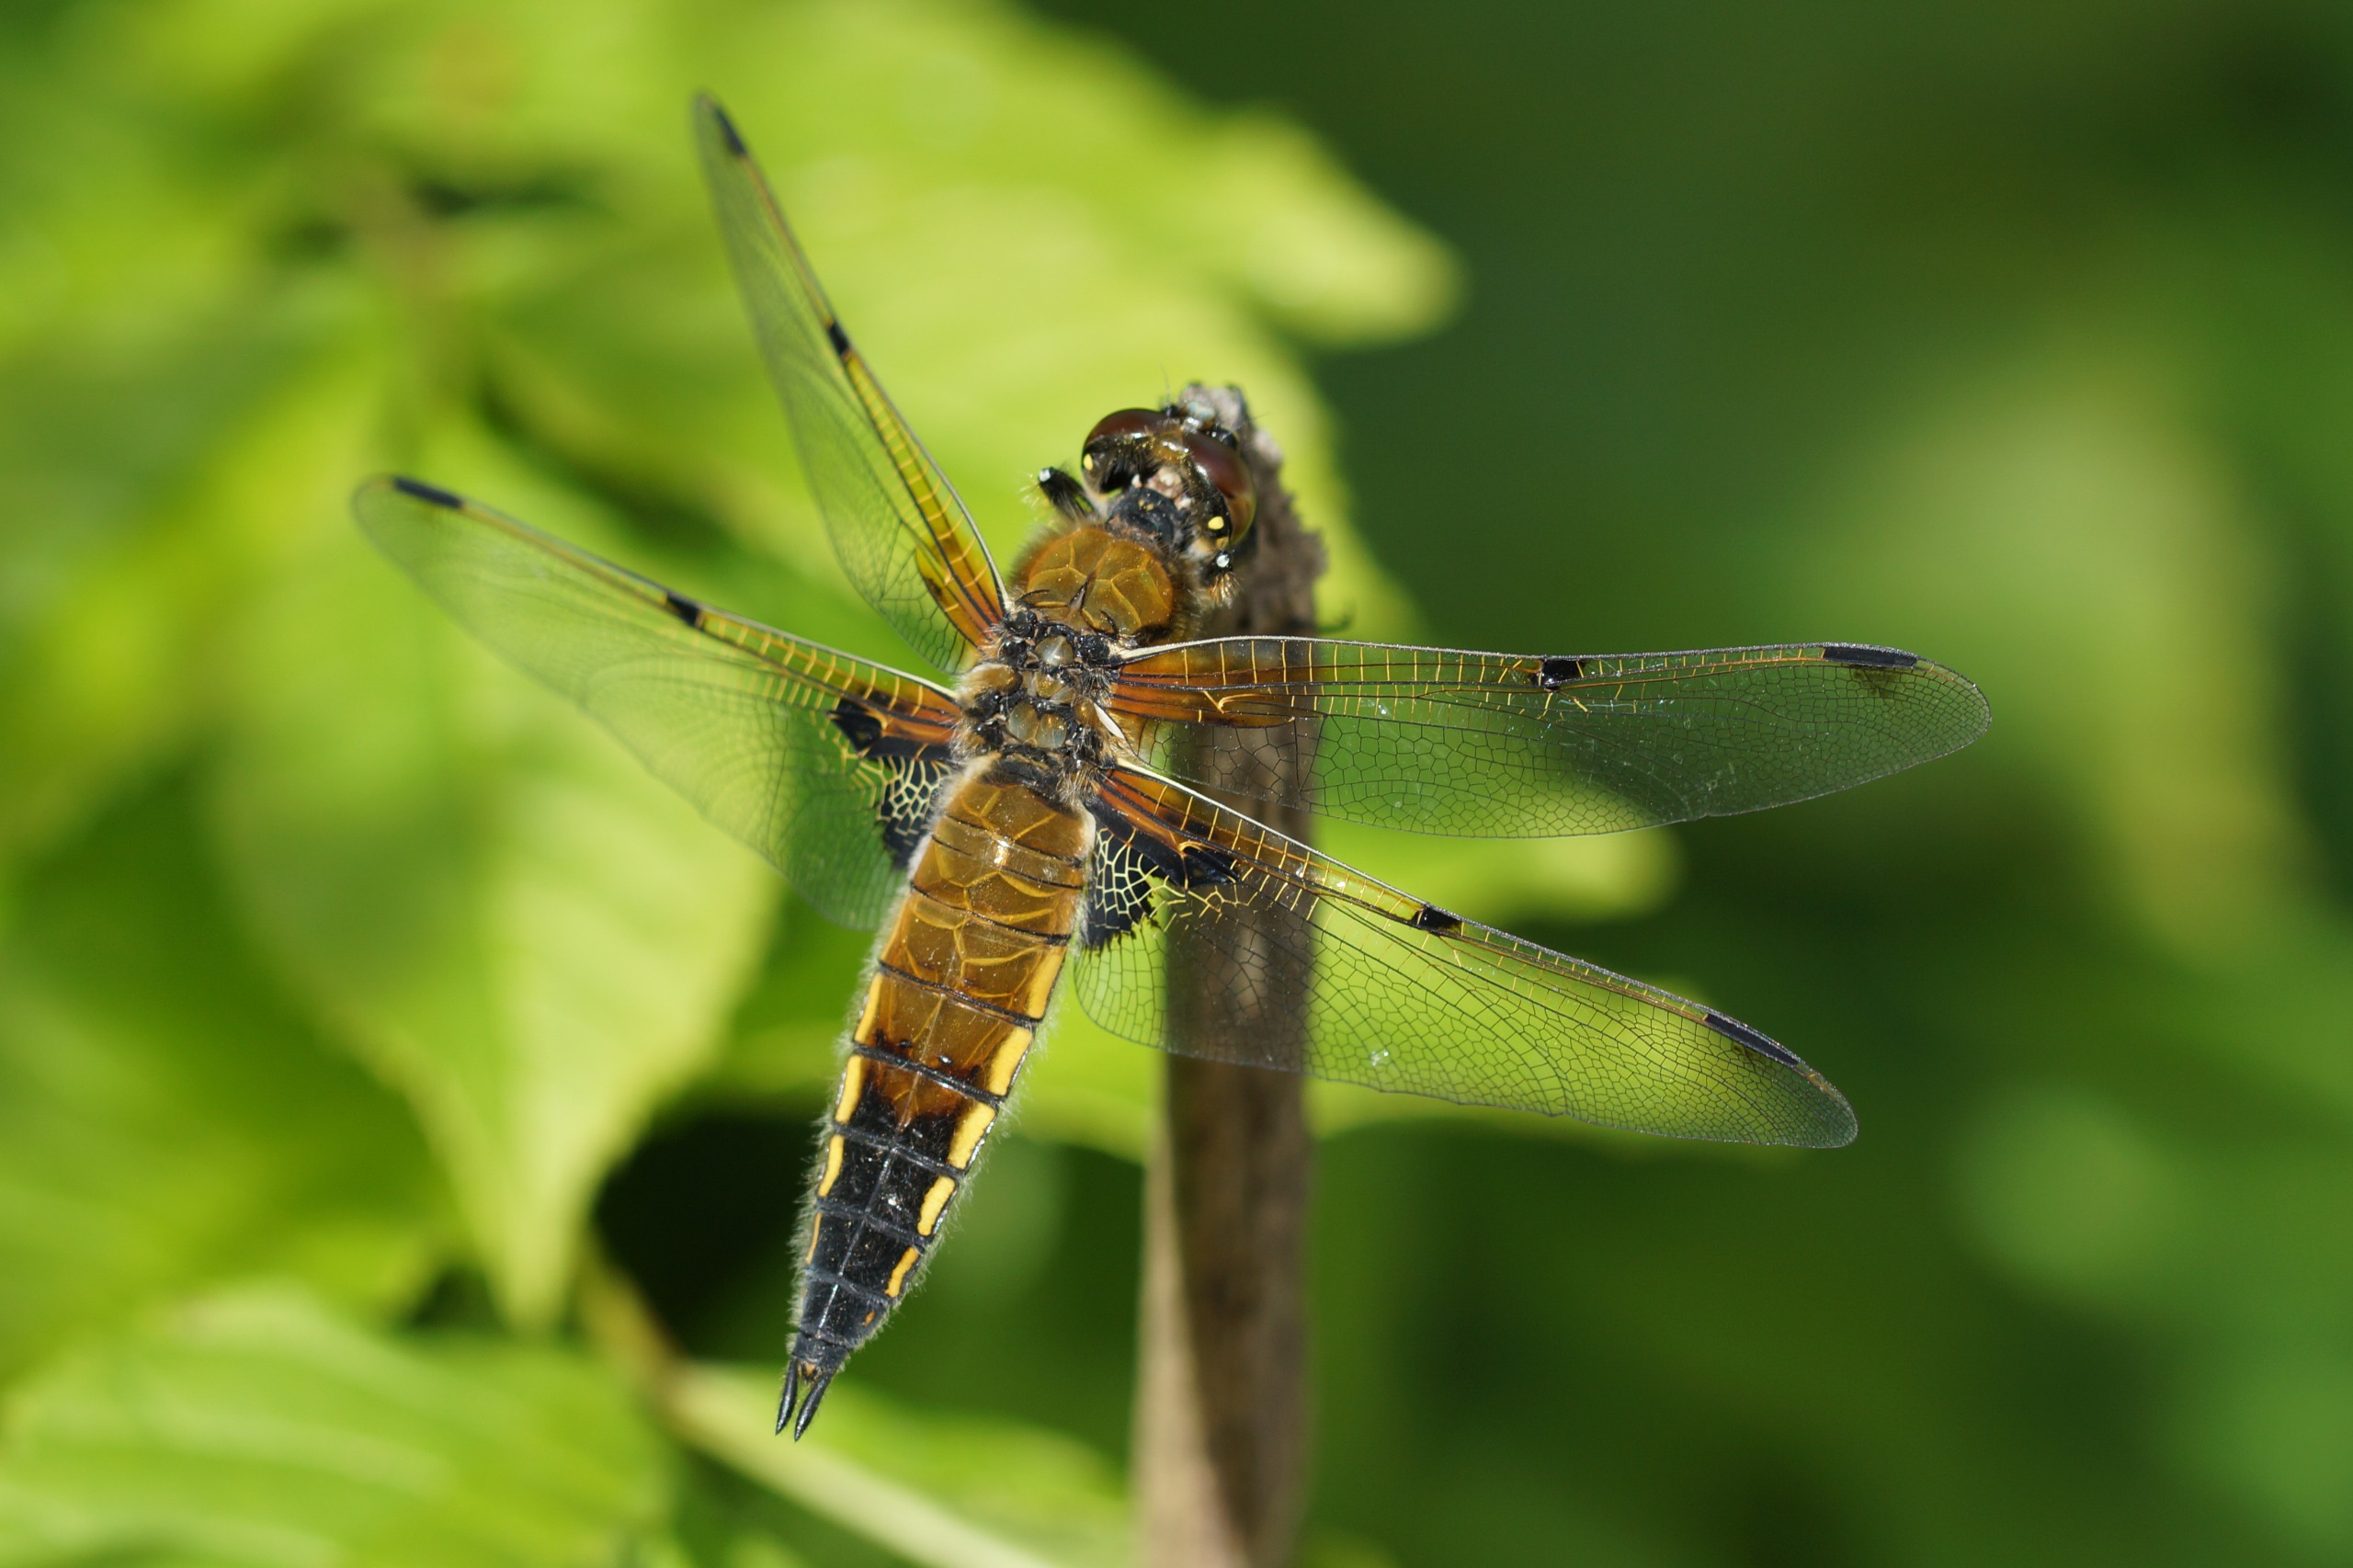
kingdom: Animalia
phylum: Arthropoda
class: Insecta
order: Odonata
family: Libellulidae
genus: Libellula
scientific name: Libellula quadrimaculata
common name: Fireplettet libel
